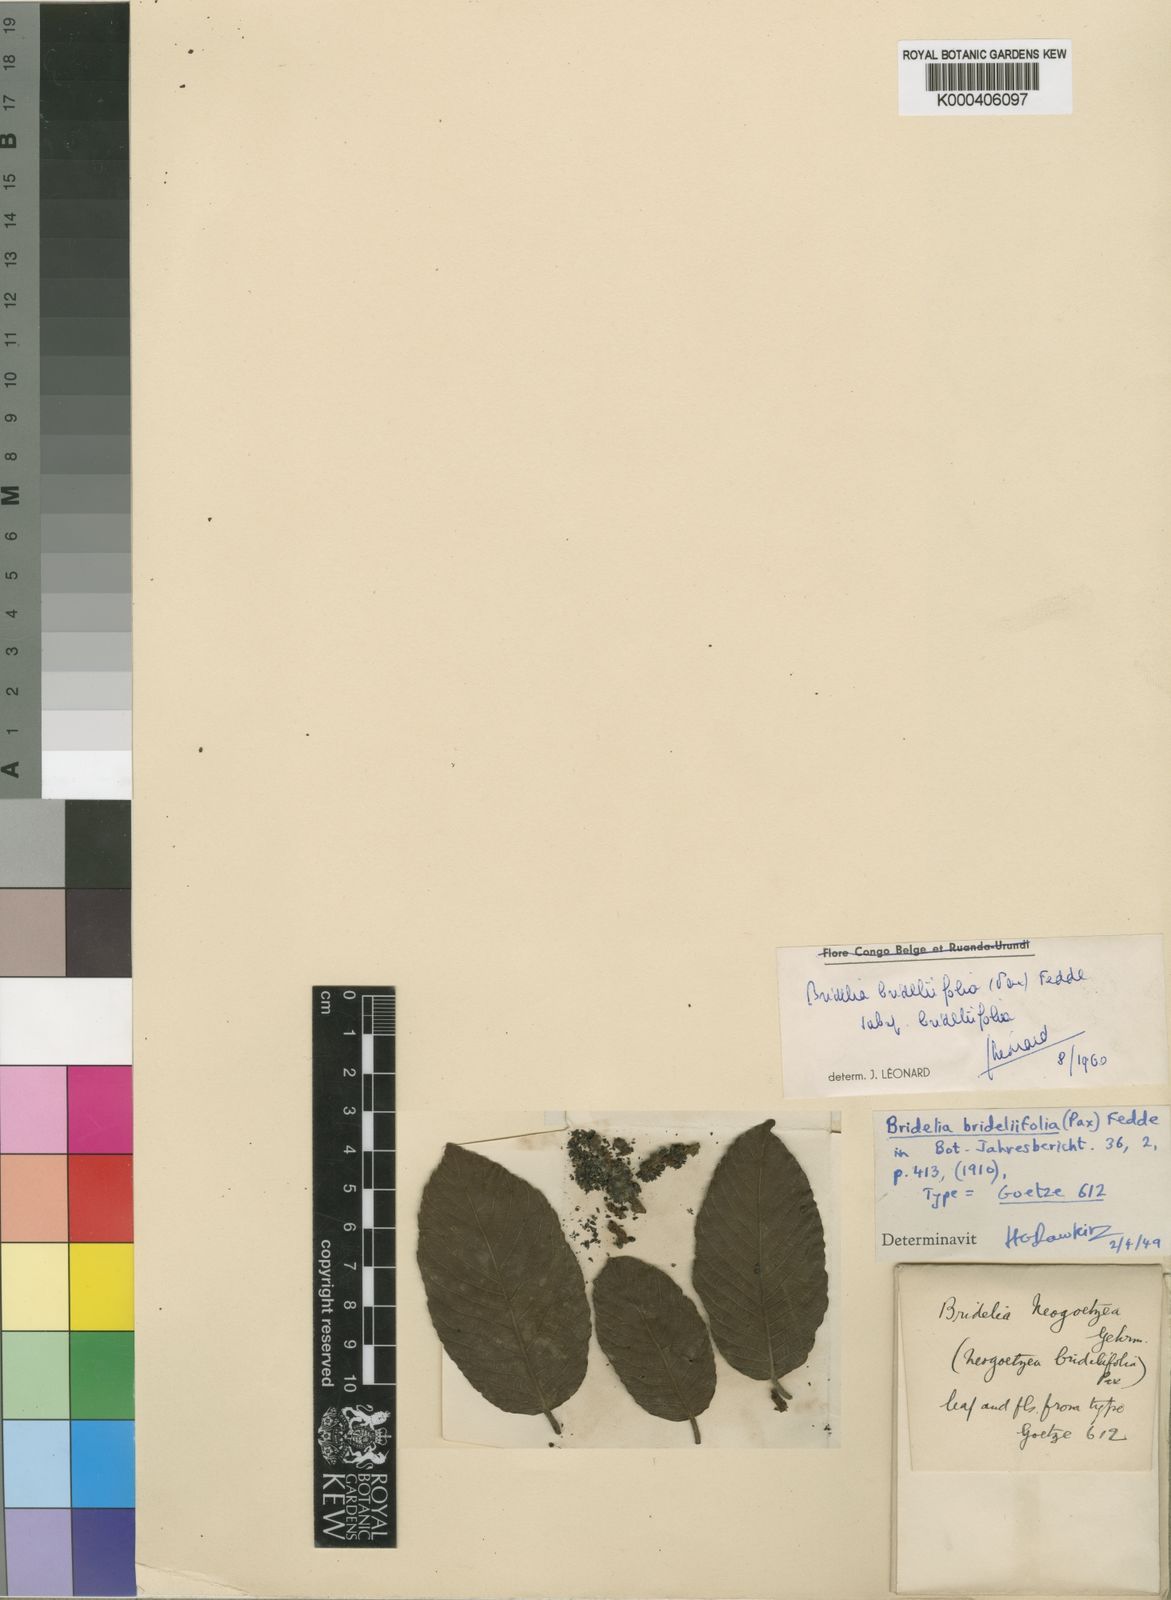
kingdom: Plantae
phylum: Tracheophyta
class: Magnoliopsida
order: Malpighiales
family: Phyllanthaceae
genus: Bridelia
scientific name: Bridelia brideliifolia
